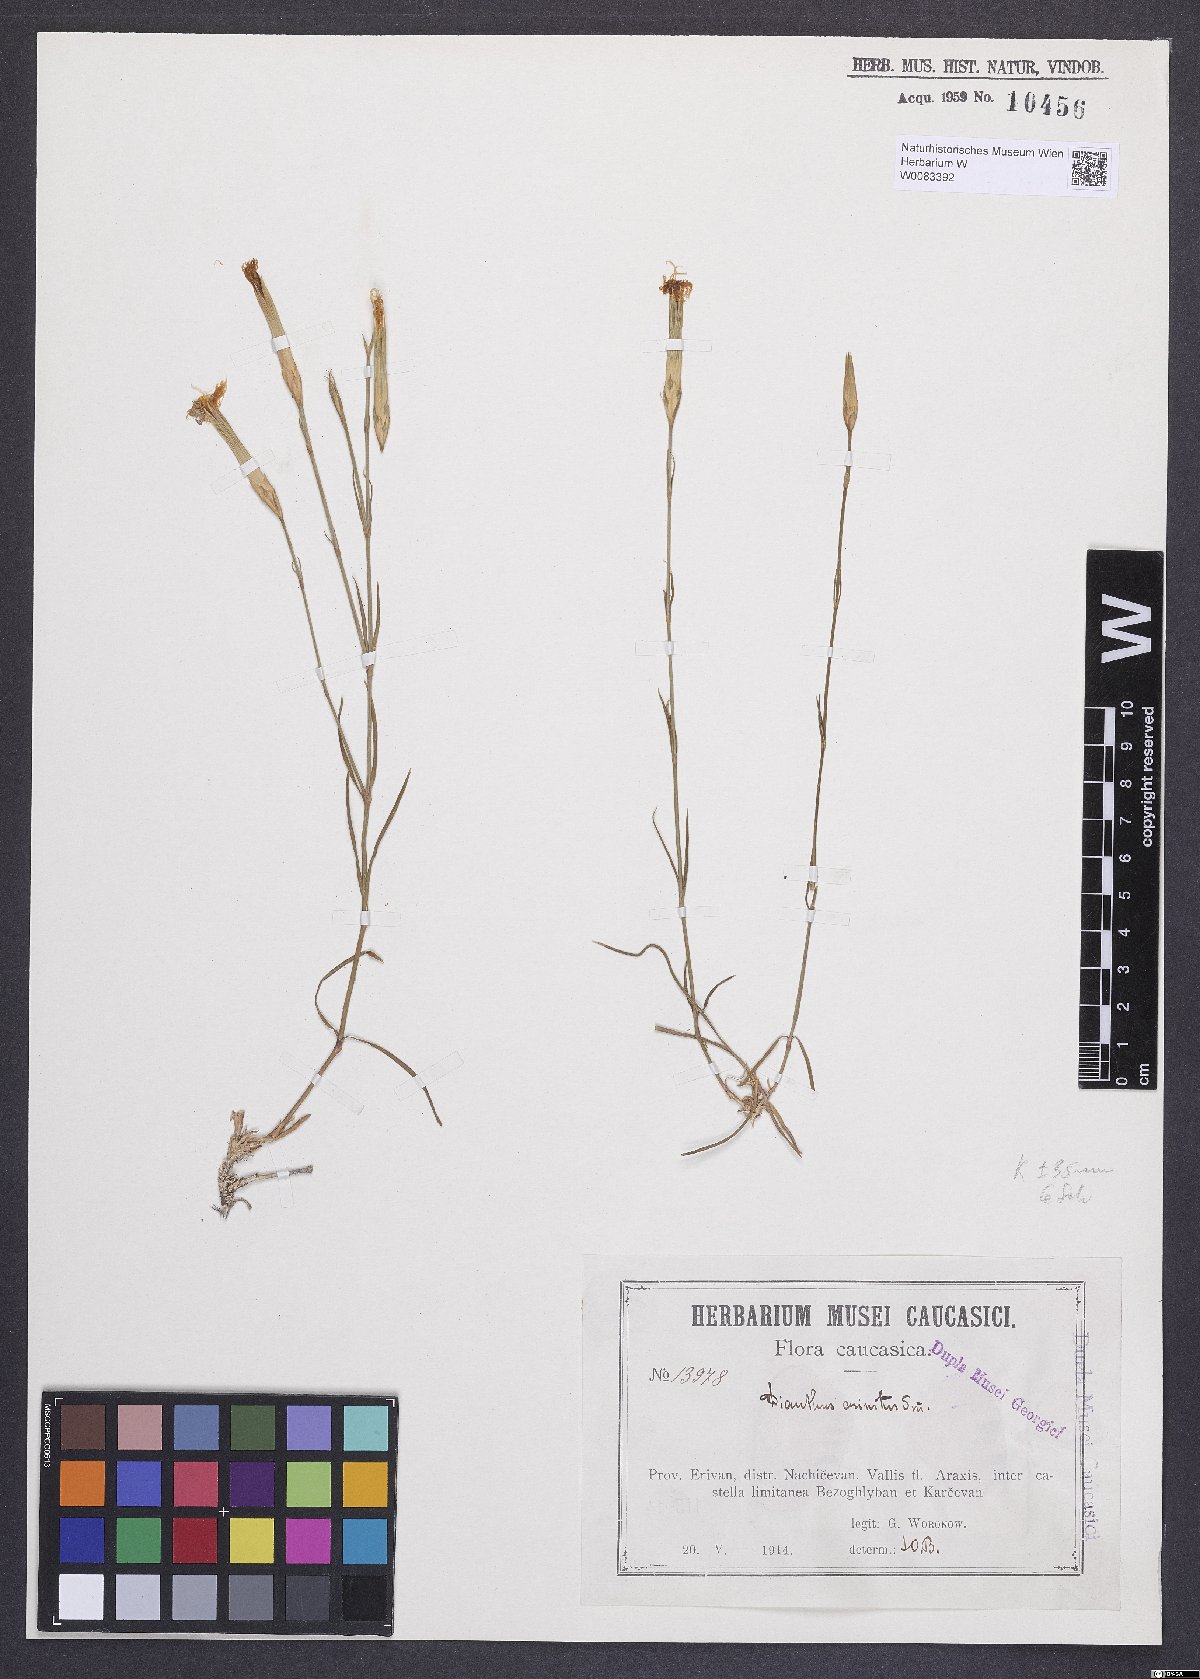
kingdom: Plantae
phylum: Tracheophyta
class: Magnoliopsida
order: Caryophyllales
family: Caryophyllaceae
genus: Dianthus
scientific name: Dianthus crinitus
